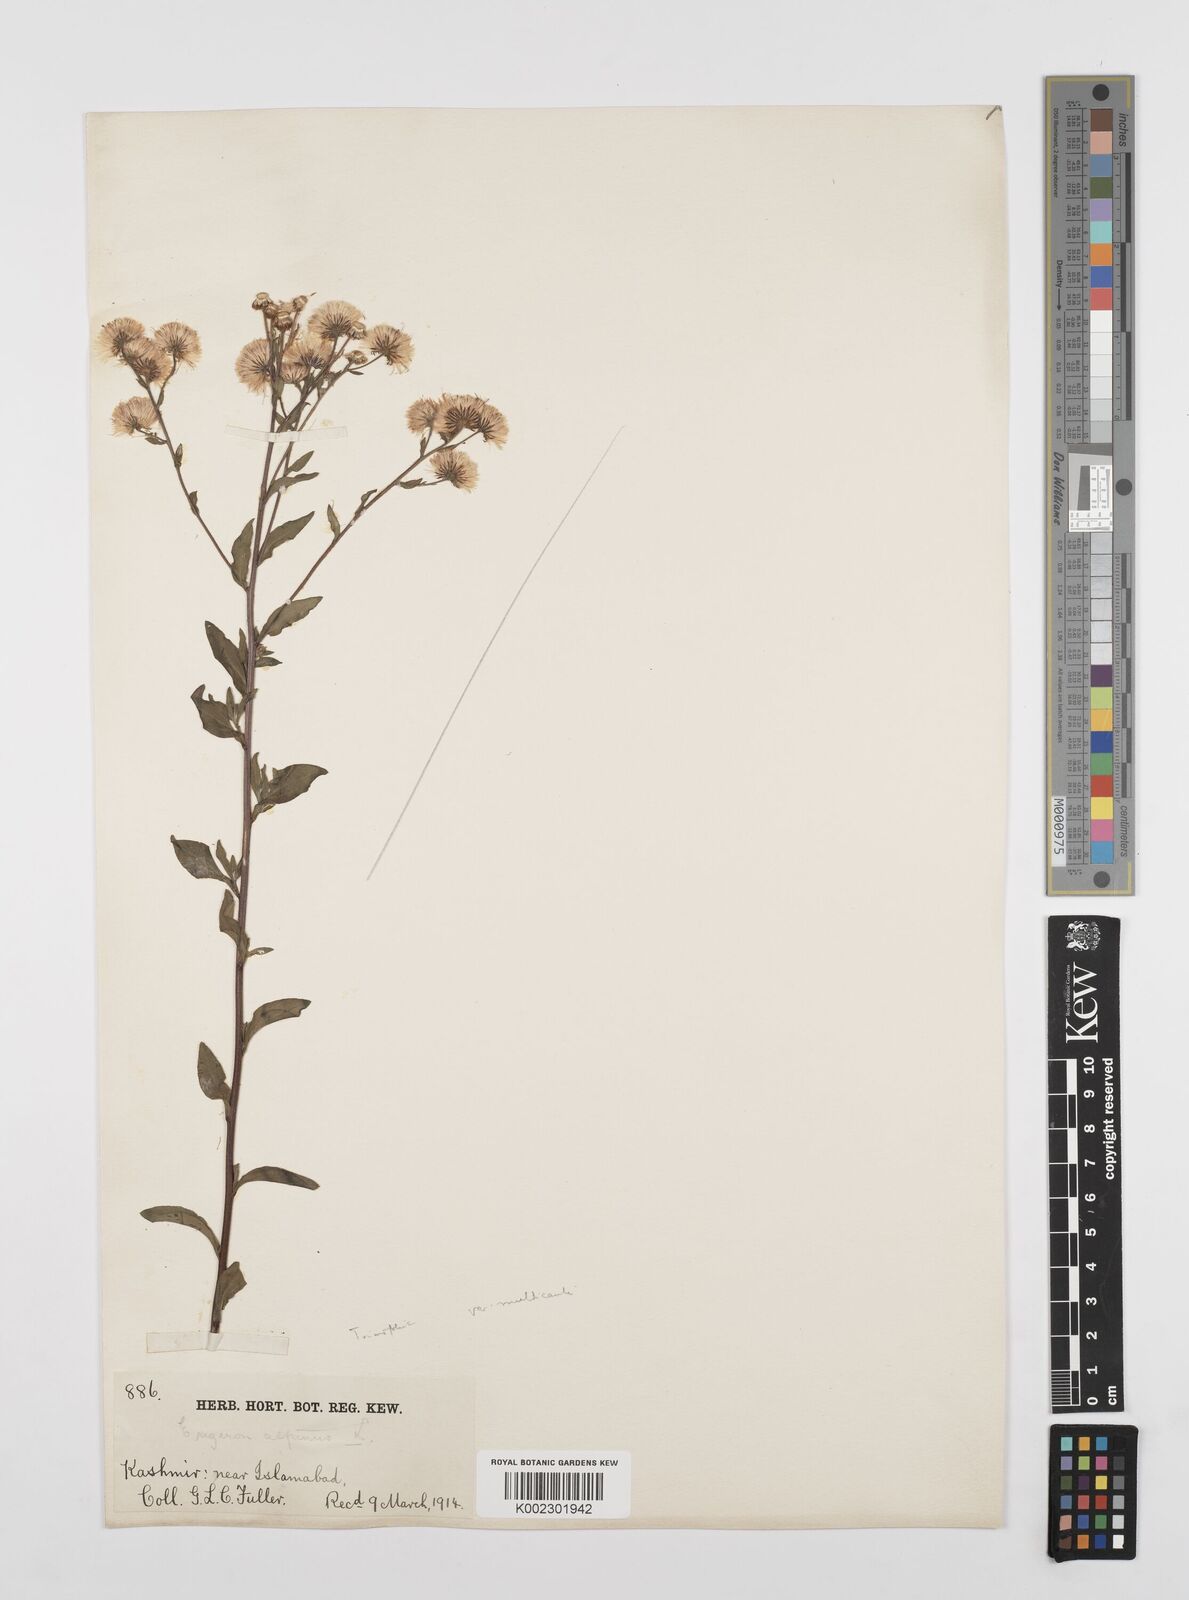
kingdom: Plantae
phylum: Tracheophyta
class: Magnoliopsida
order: Asterales
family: Asteraceae
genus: Erigeron
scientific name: Erigeron alpinus
